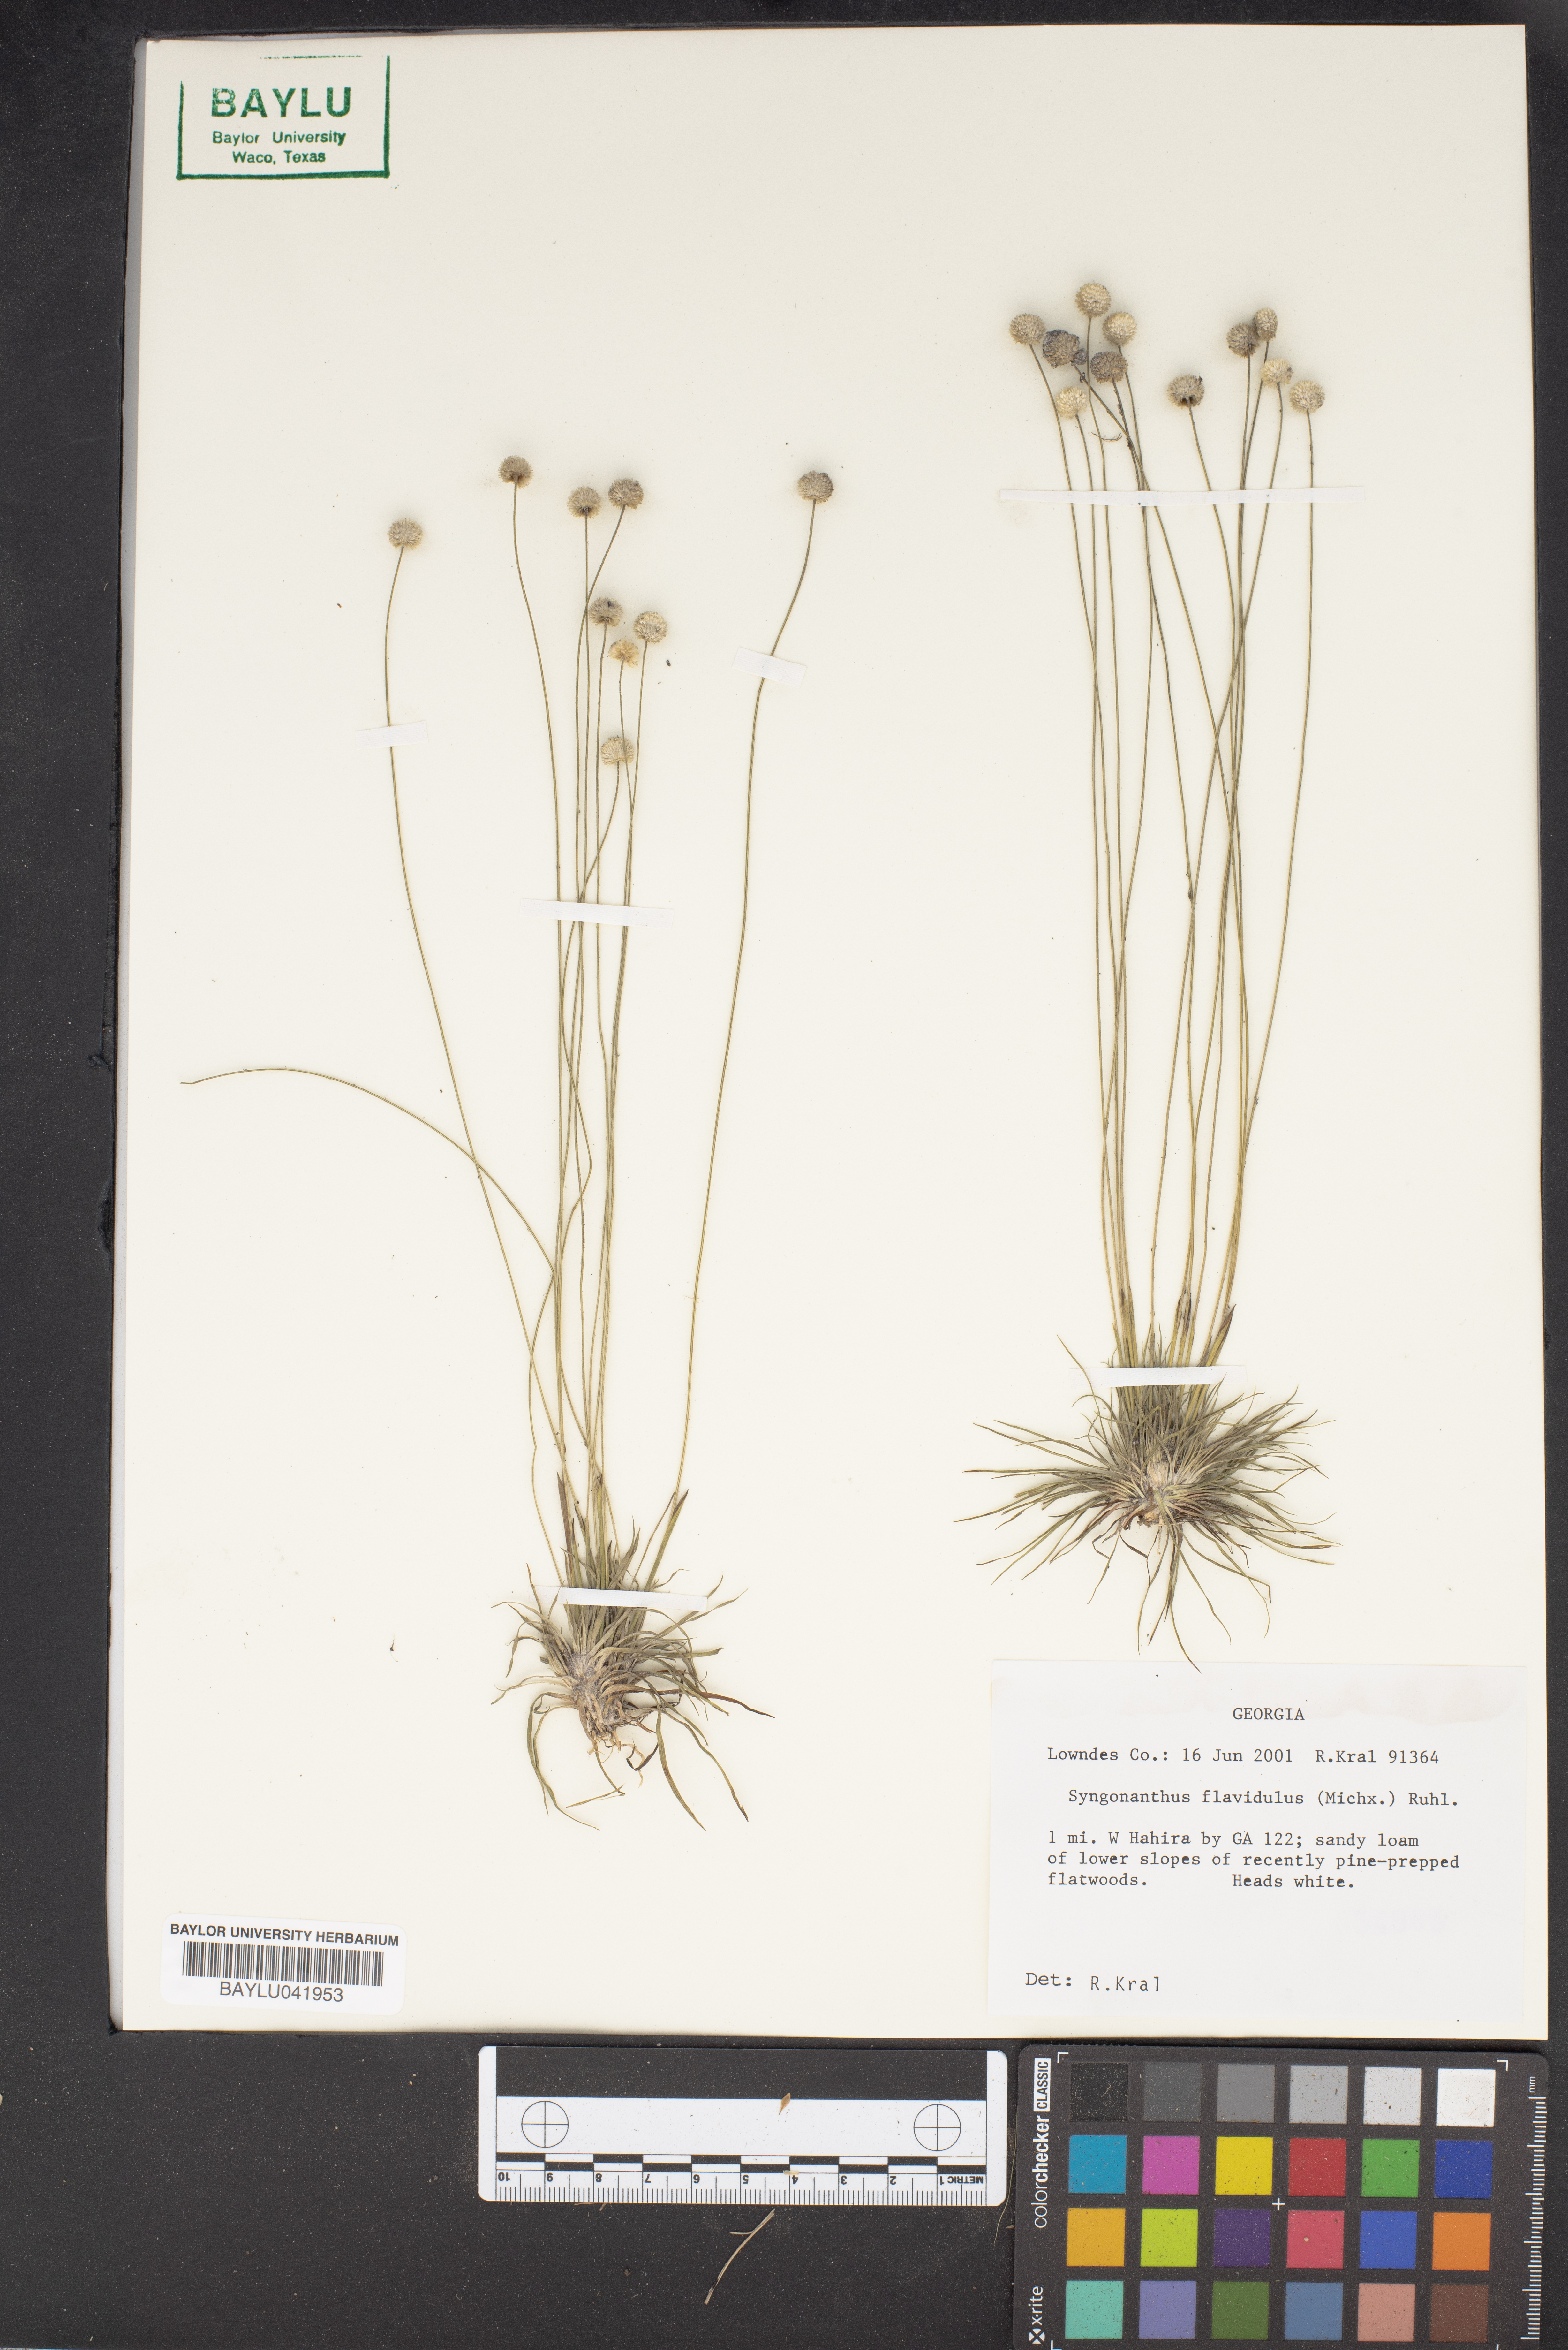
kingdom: Plantae
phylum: Tracheophyta
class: Liliopsida
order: Poales
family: Eriocaulaceae
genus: Syngonanthus
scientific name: Syngonanthus flavidulus
